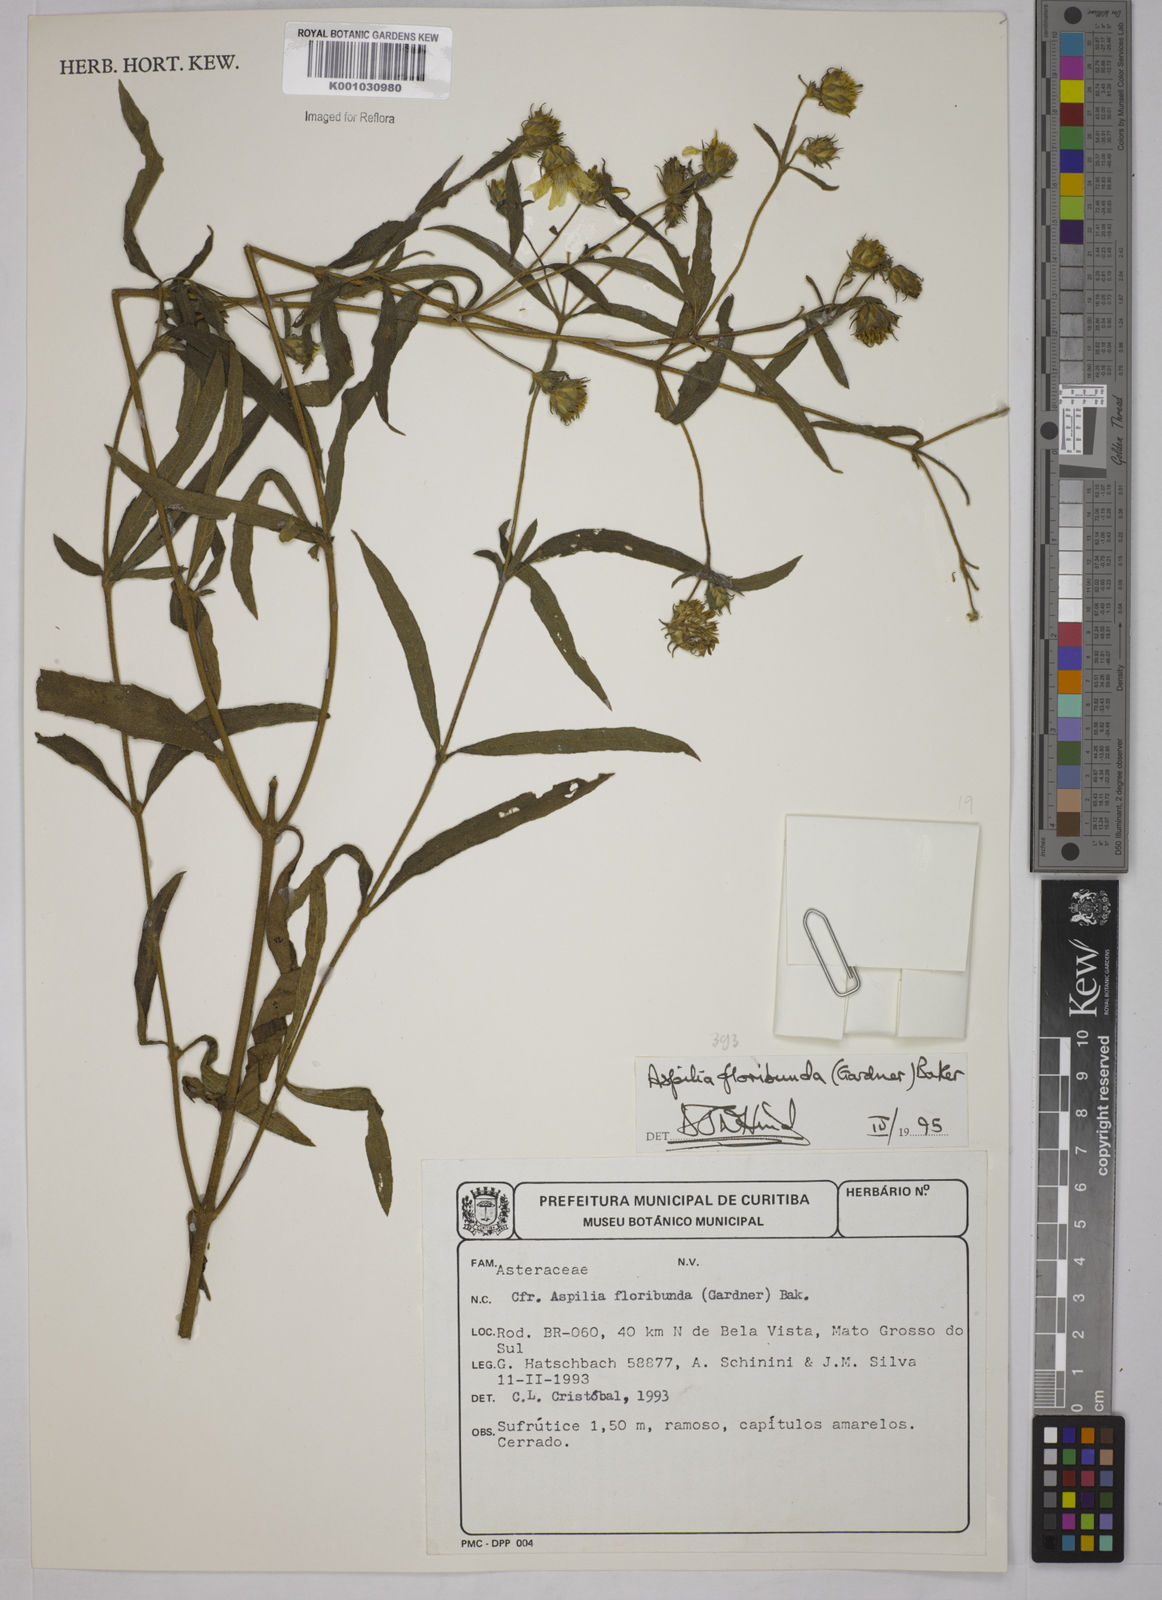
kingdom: Plantae
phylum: Tracheophyta
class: Magnoliopsida
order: Asterales
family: Asteraceae
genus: Wedelia
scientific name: Wedelia floribunda
